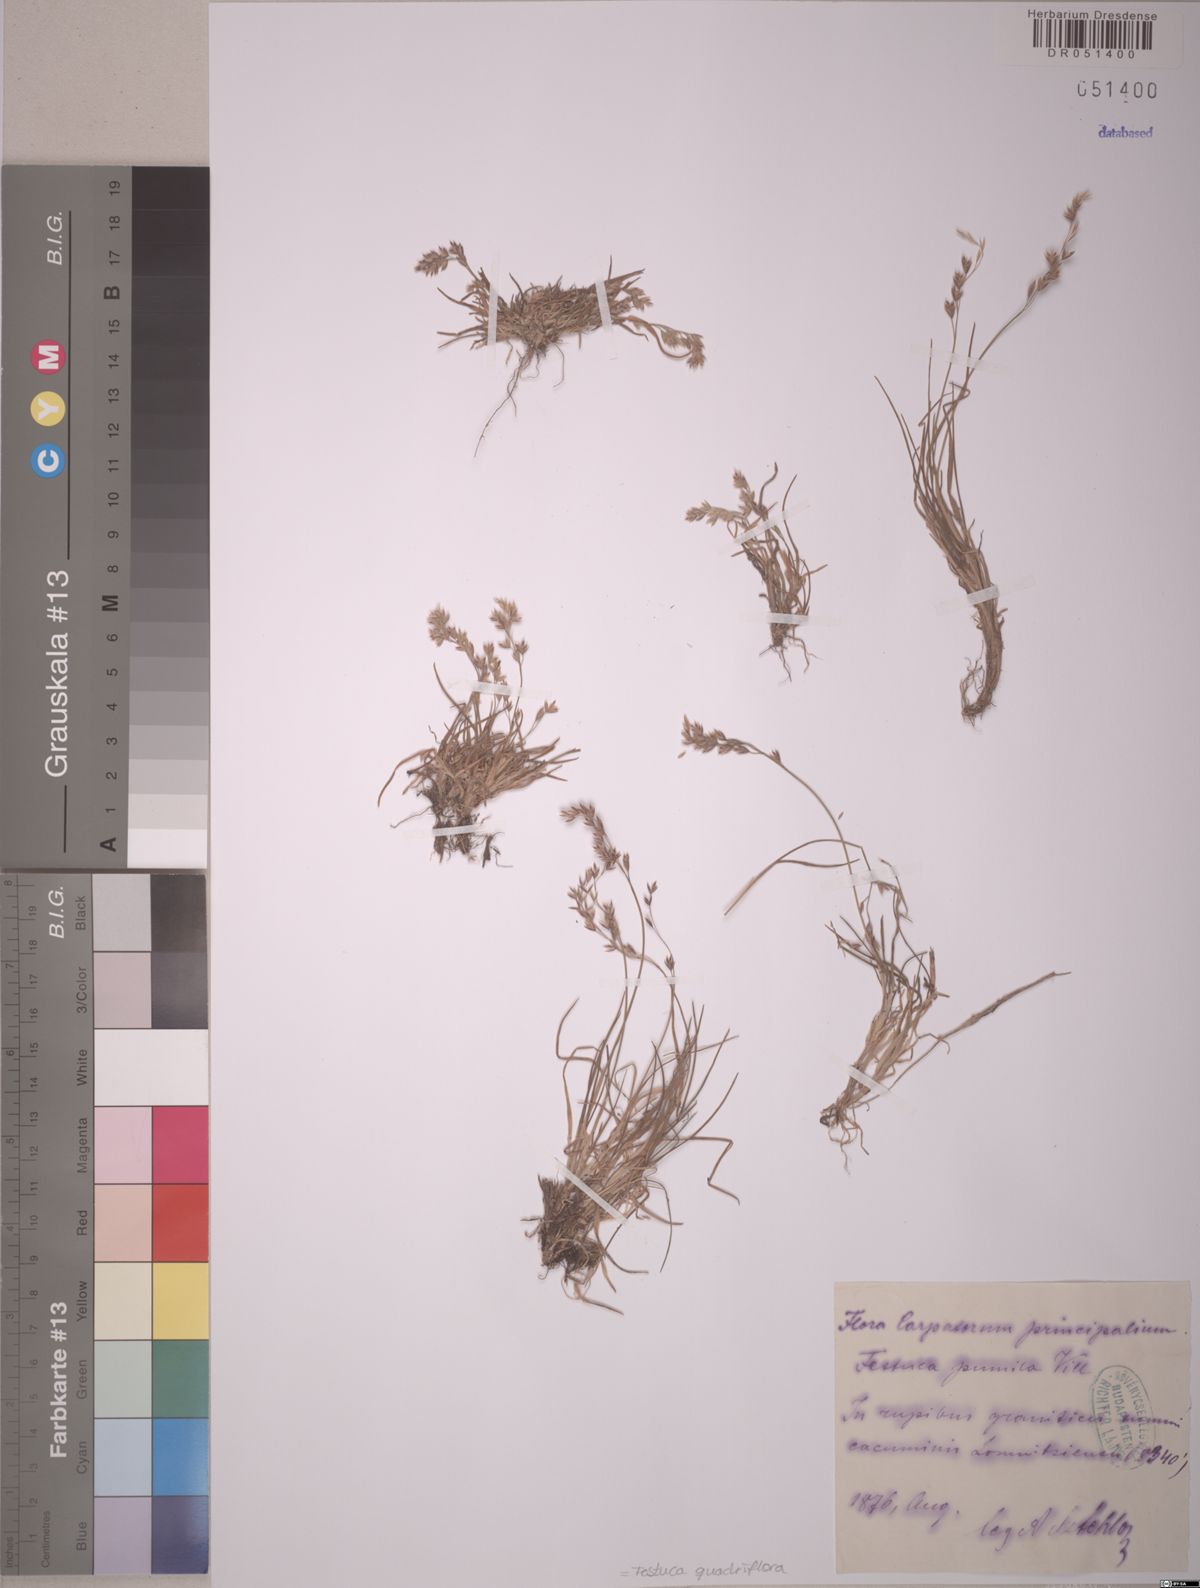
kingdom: Plantae
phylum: Tracheophyta
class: Liliopsida
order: Poales
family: Poaceae
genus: Festuca
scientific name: Festuca quadriflora
